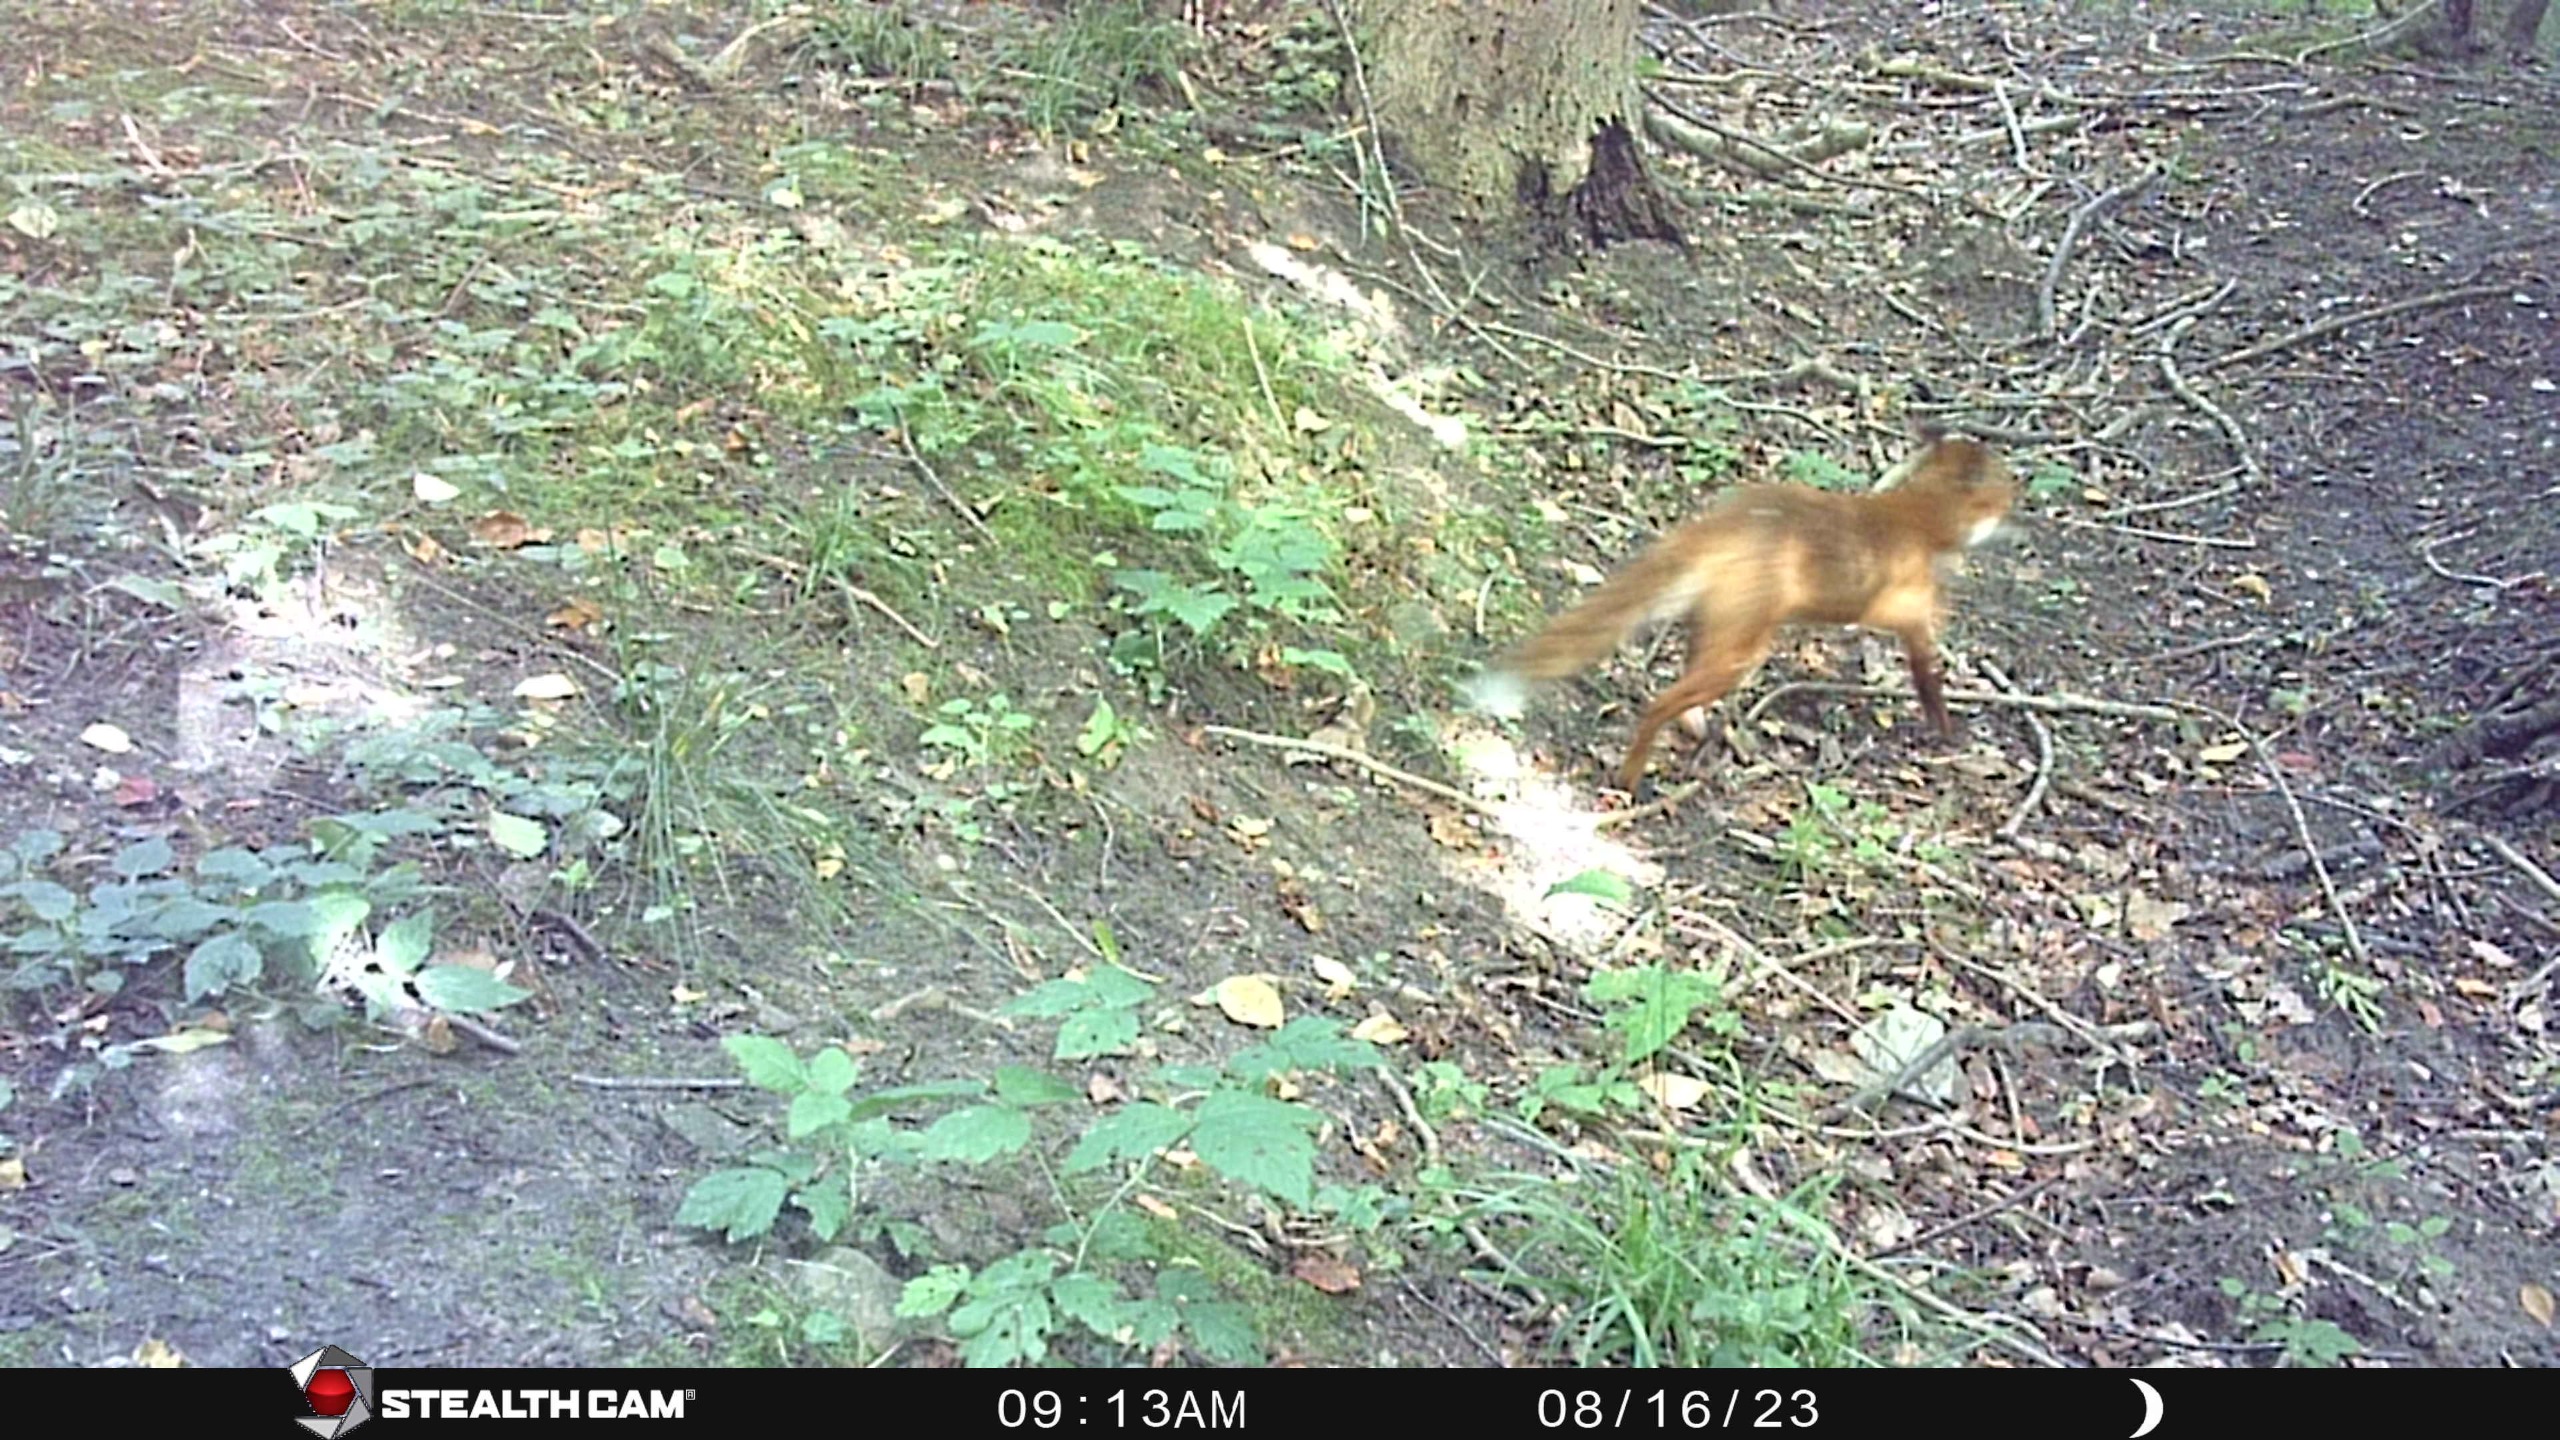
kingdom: Animalia
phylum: Chordata
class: Mammalia
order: Carnivora
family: Canidae
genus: Vulpes
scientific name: Vulpes vulpes
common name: Ræv
